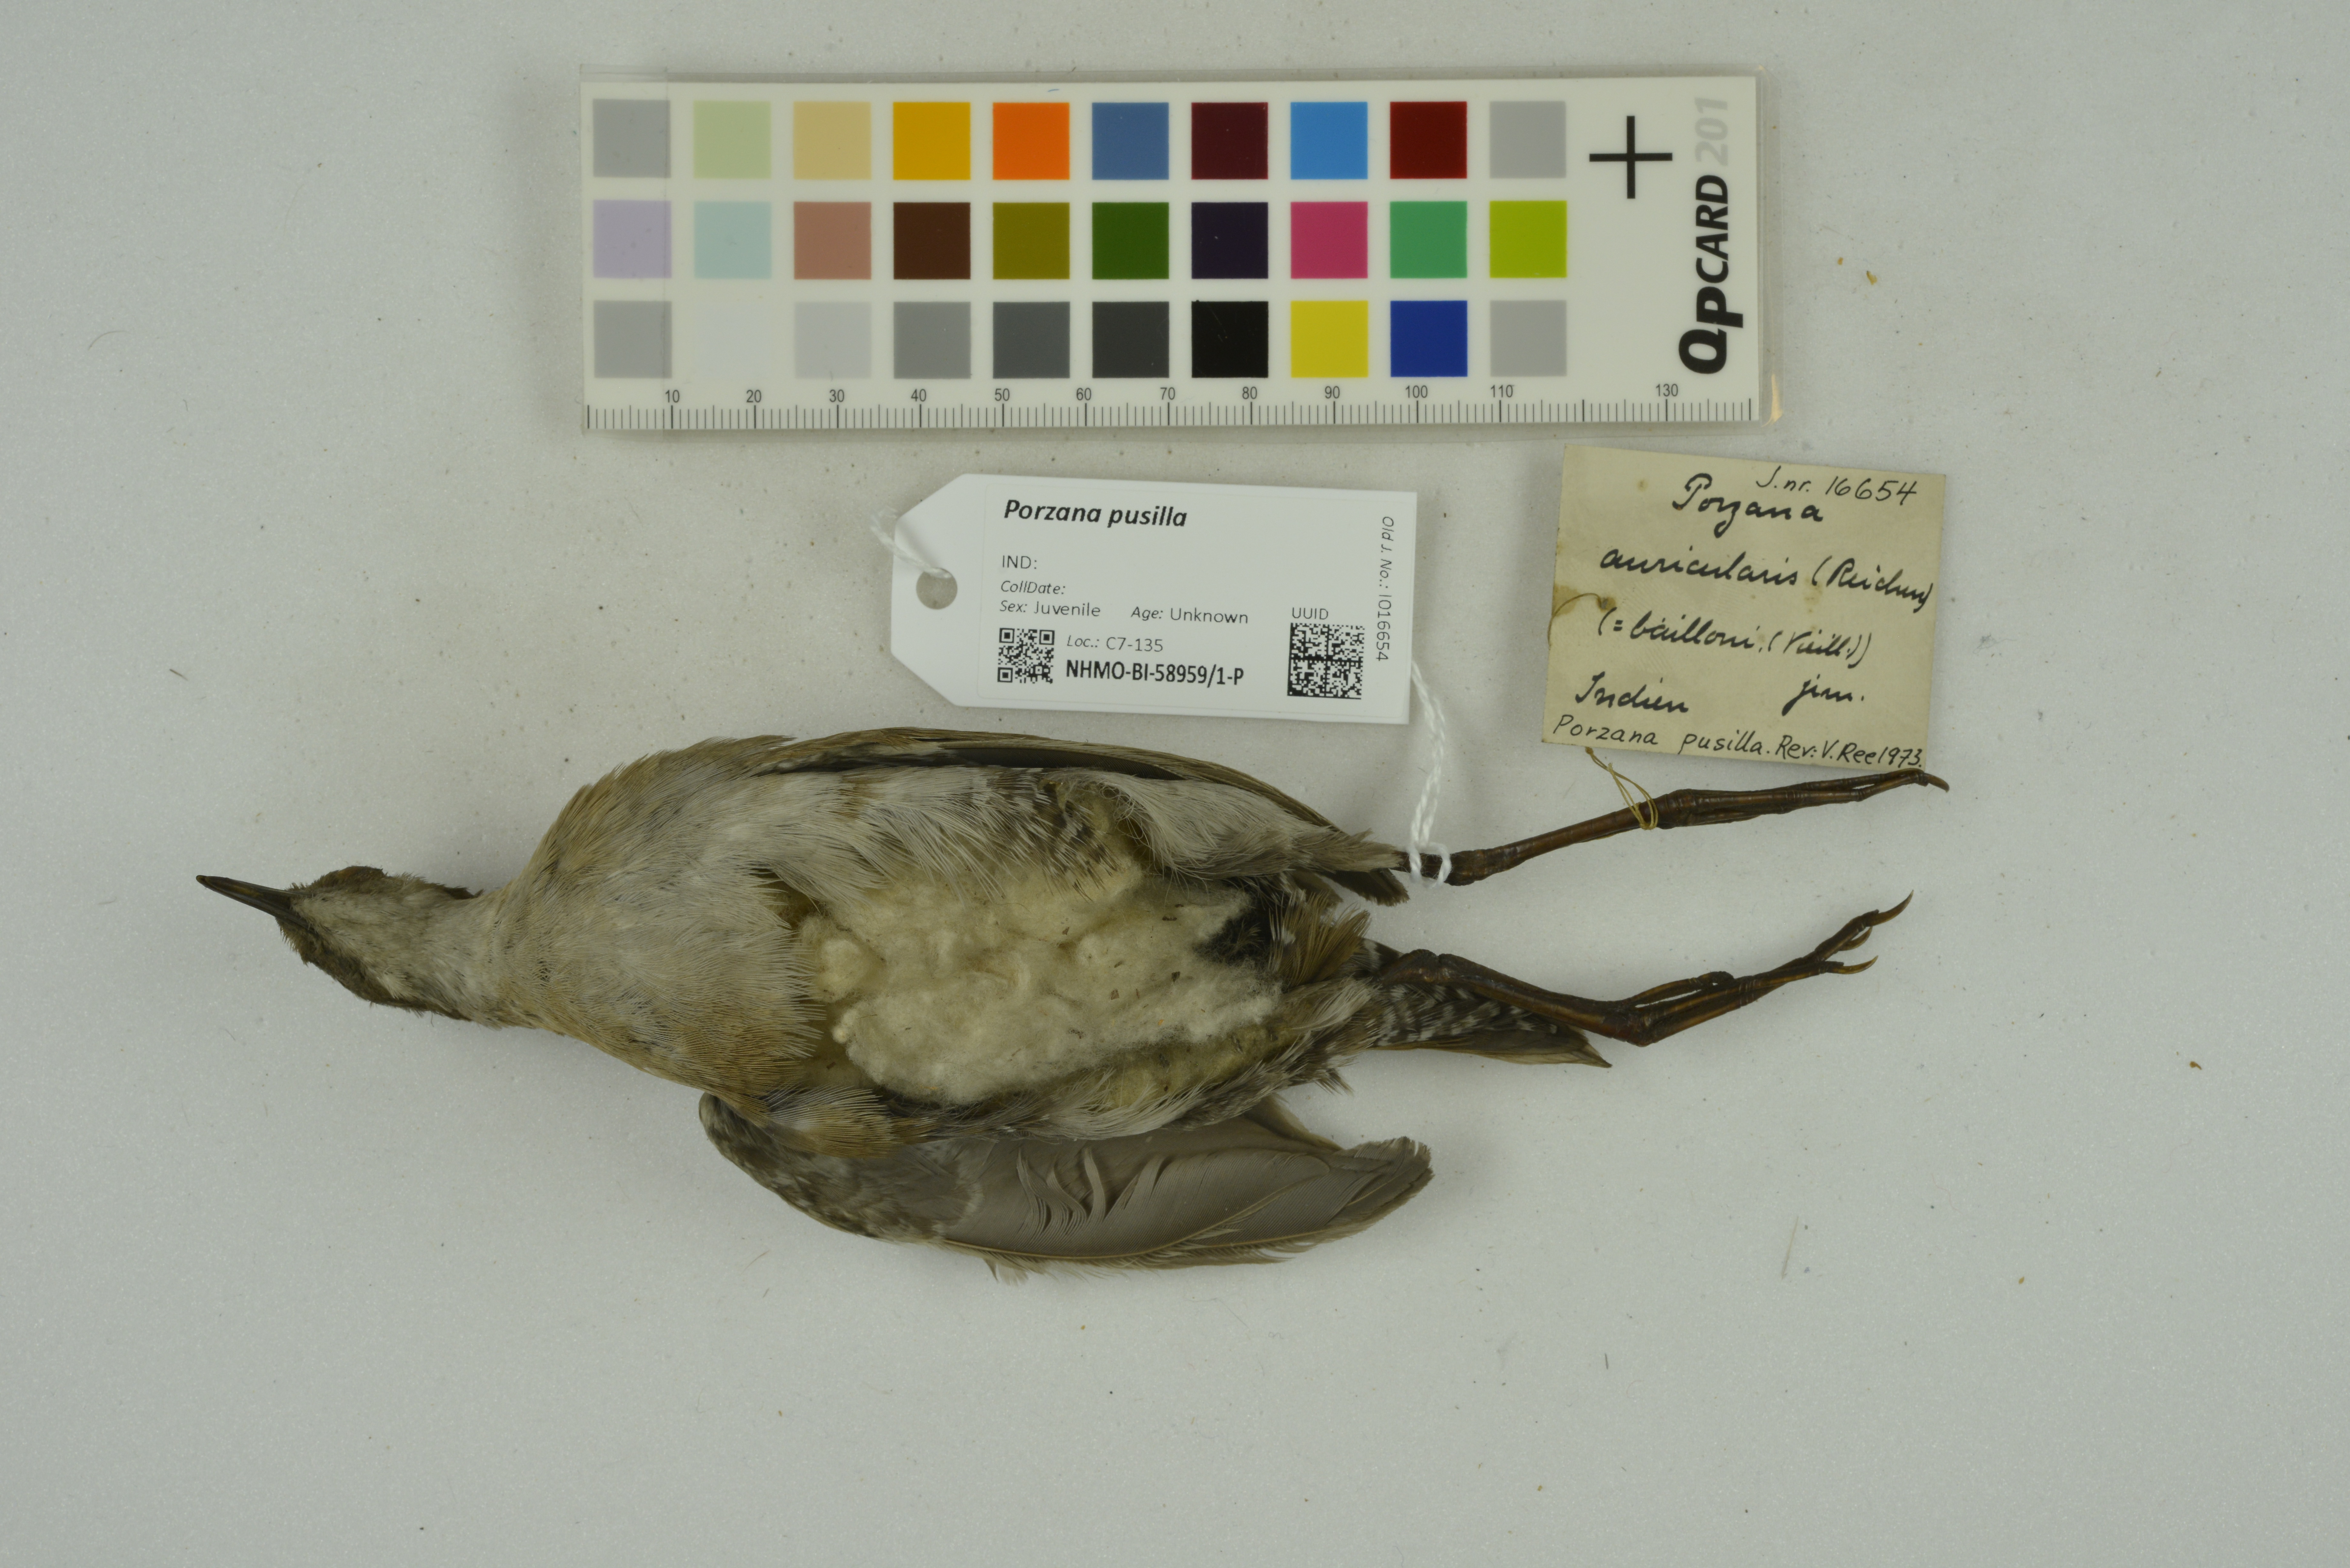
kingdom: Animalia
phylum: Chordata
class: Aves
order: Gruiformes
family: Rallidae
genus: Porzana
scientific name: Porzana pusilla
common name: Baillon's crake
